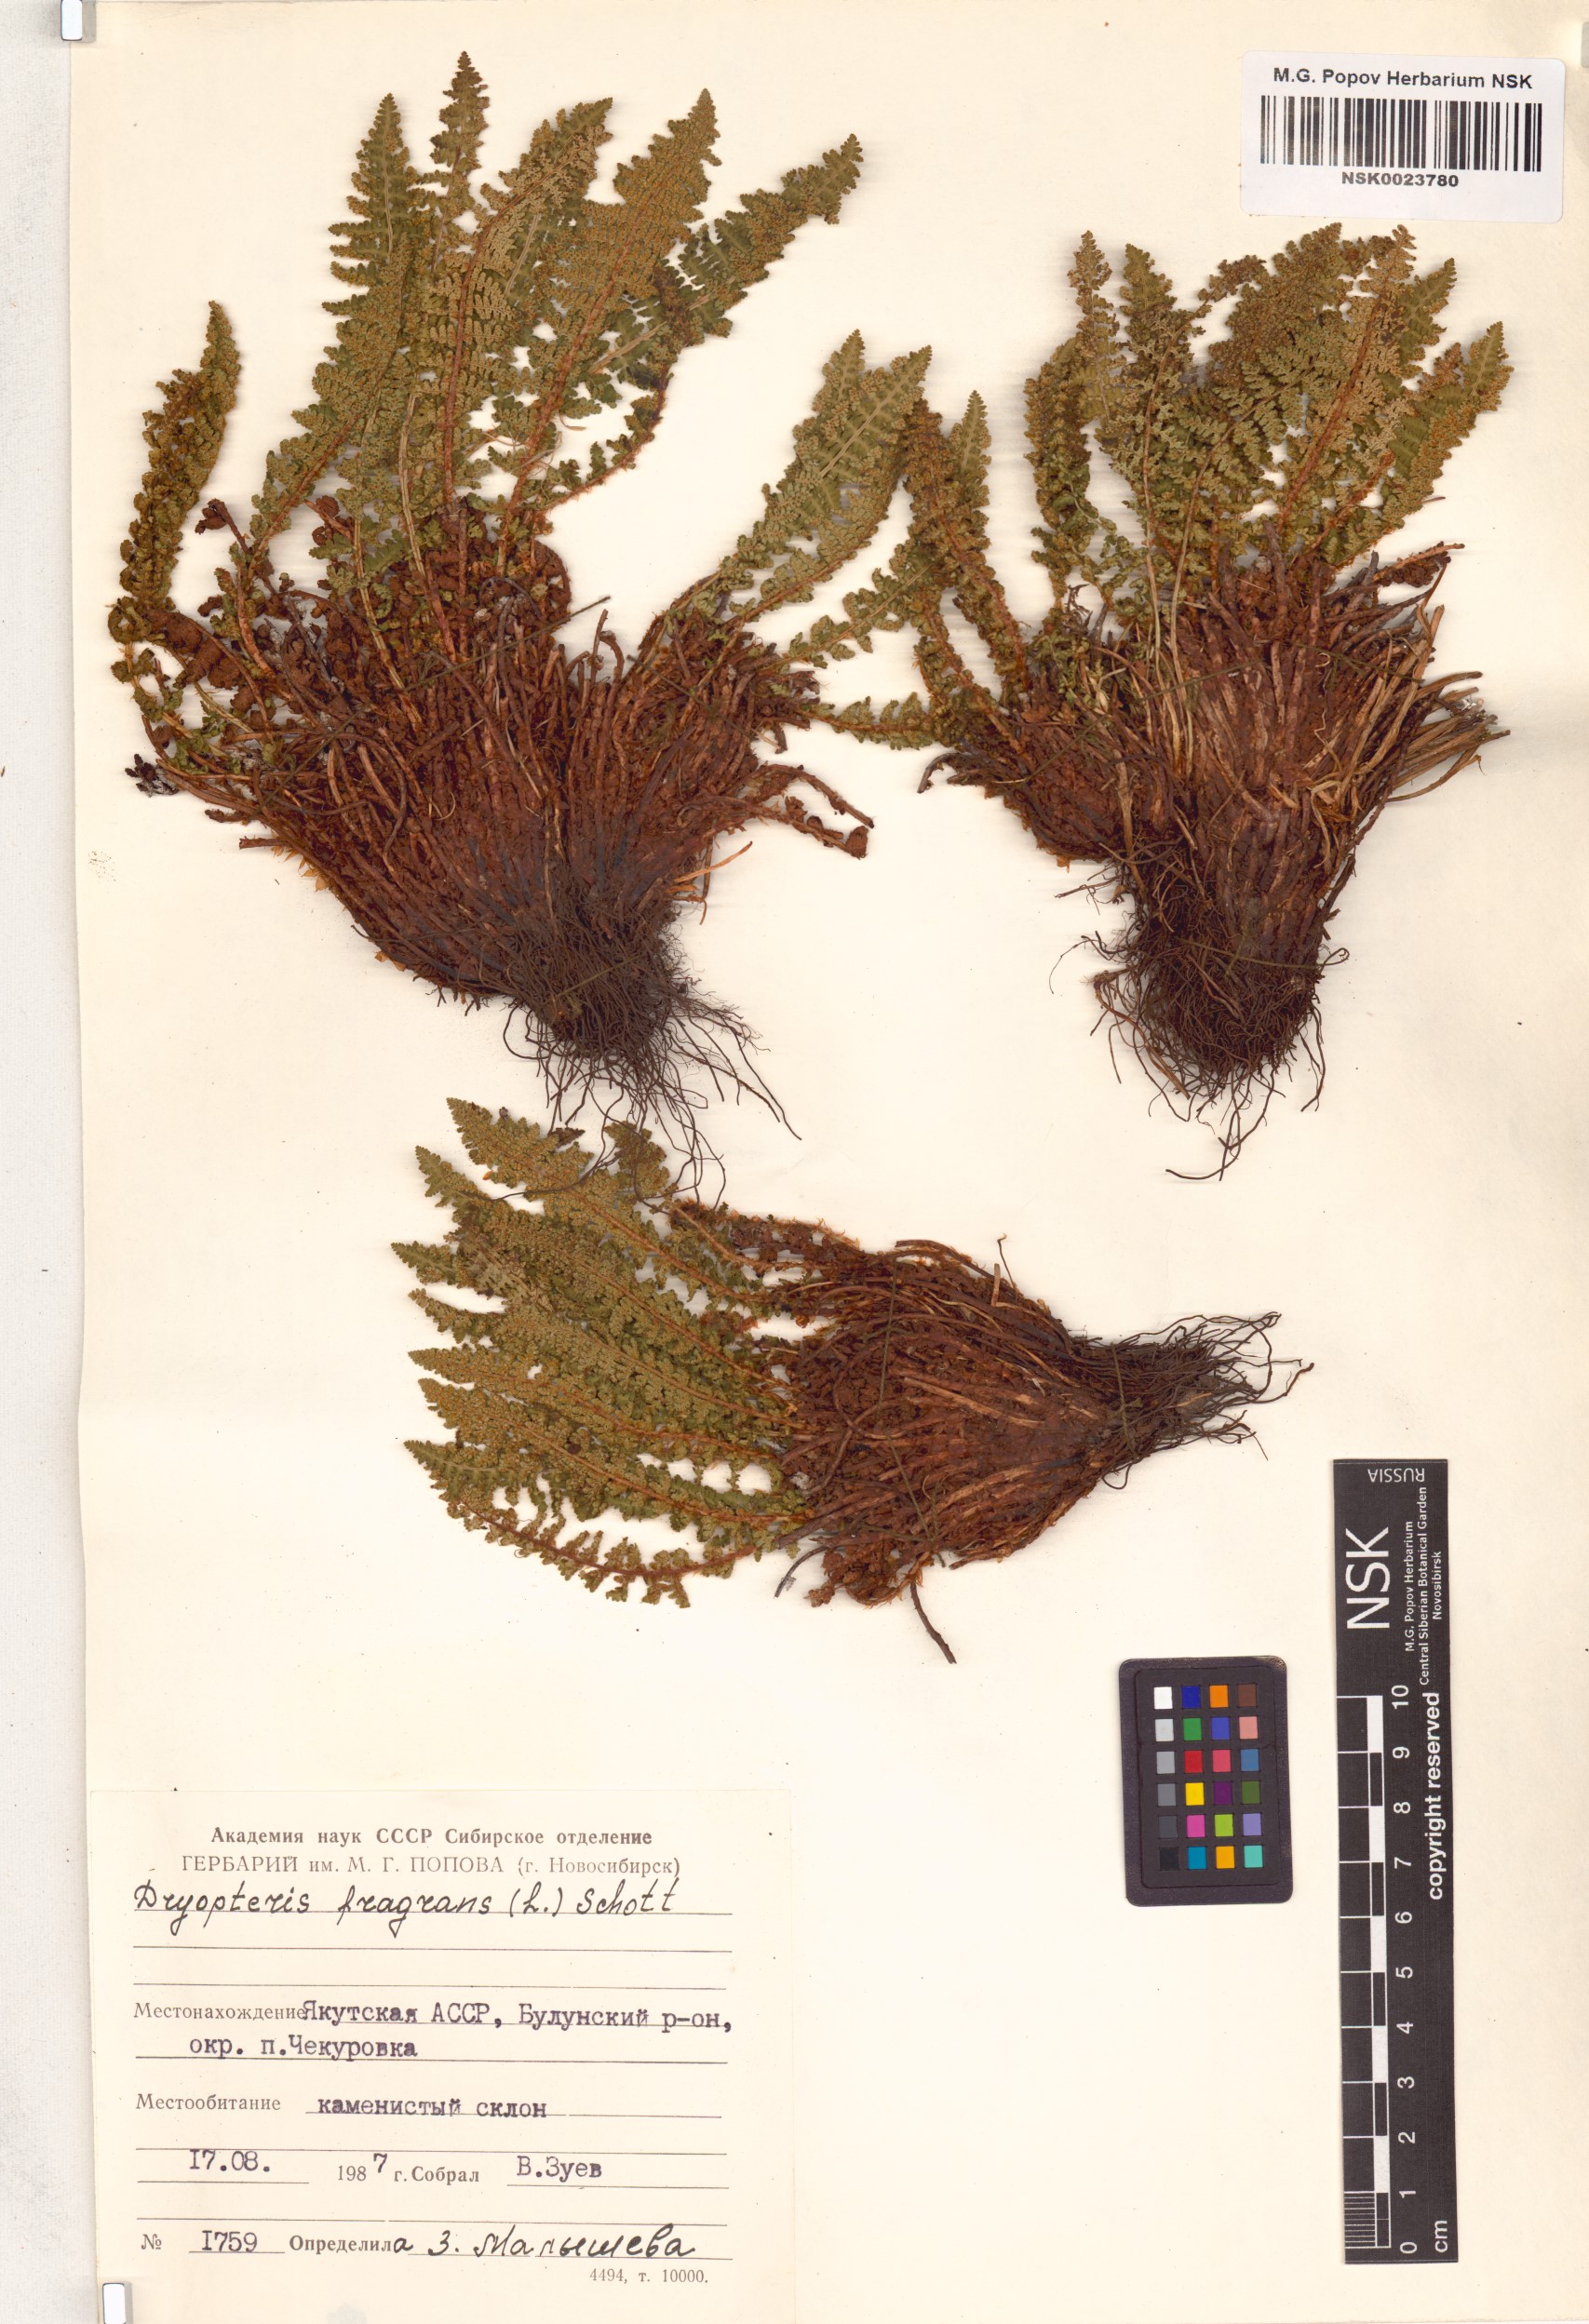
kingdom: Plantae
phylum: Tracheophyta
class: Polypodiopsida
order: Polypodiales
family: Dryopteridaceae
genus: Dryopteris
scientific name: Dryopteris fragrans
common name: Fragrant wood fern
